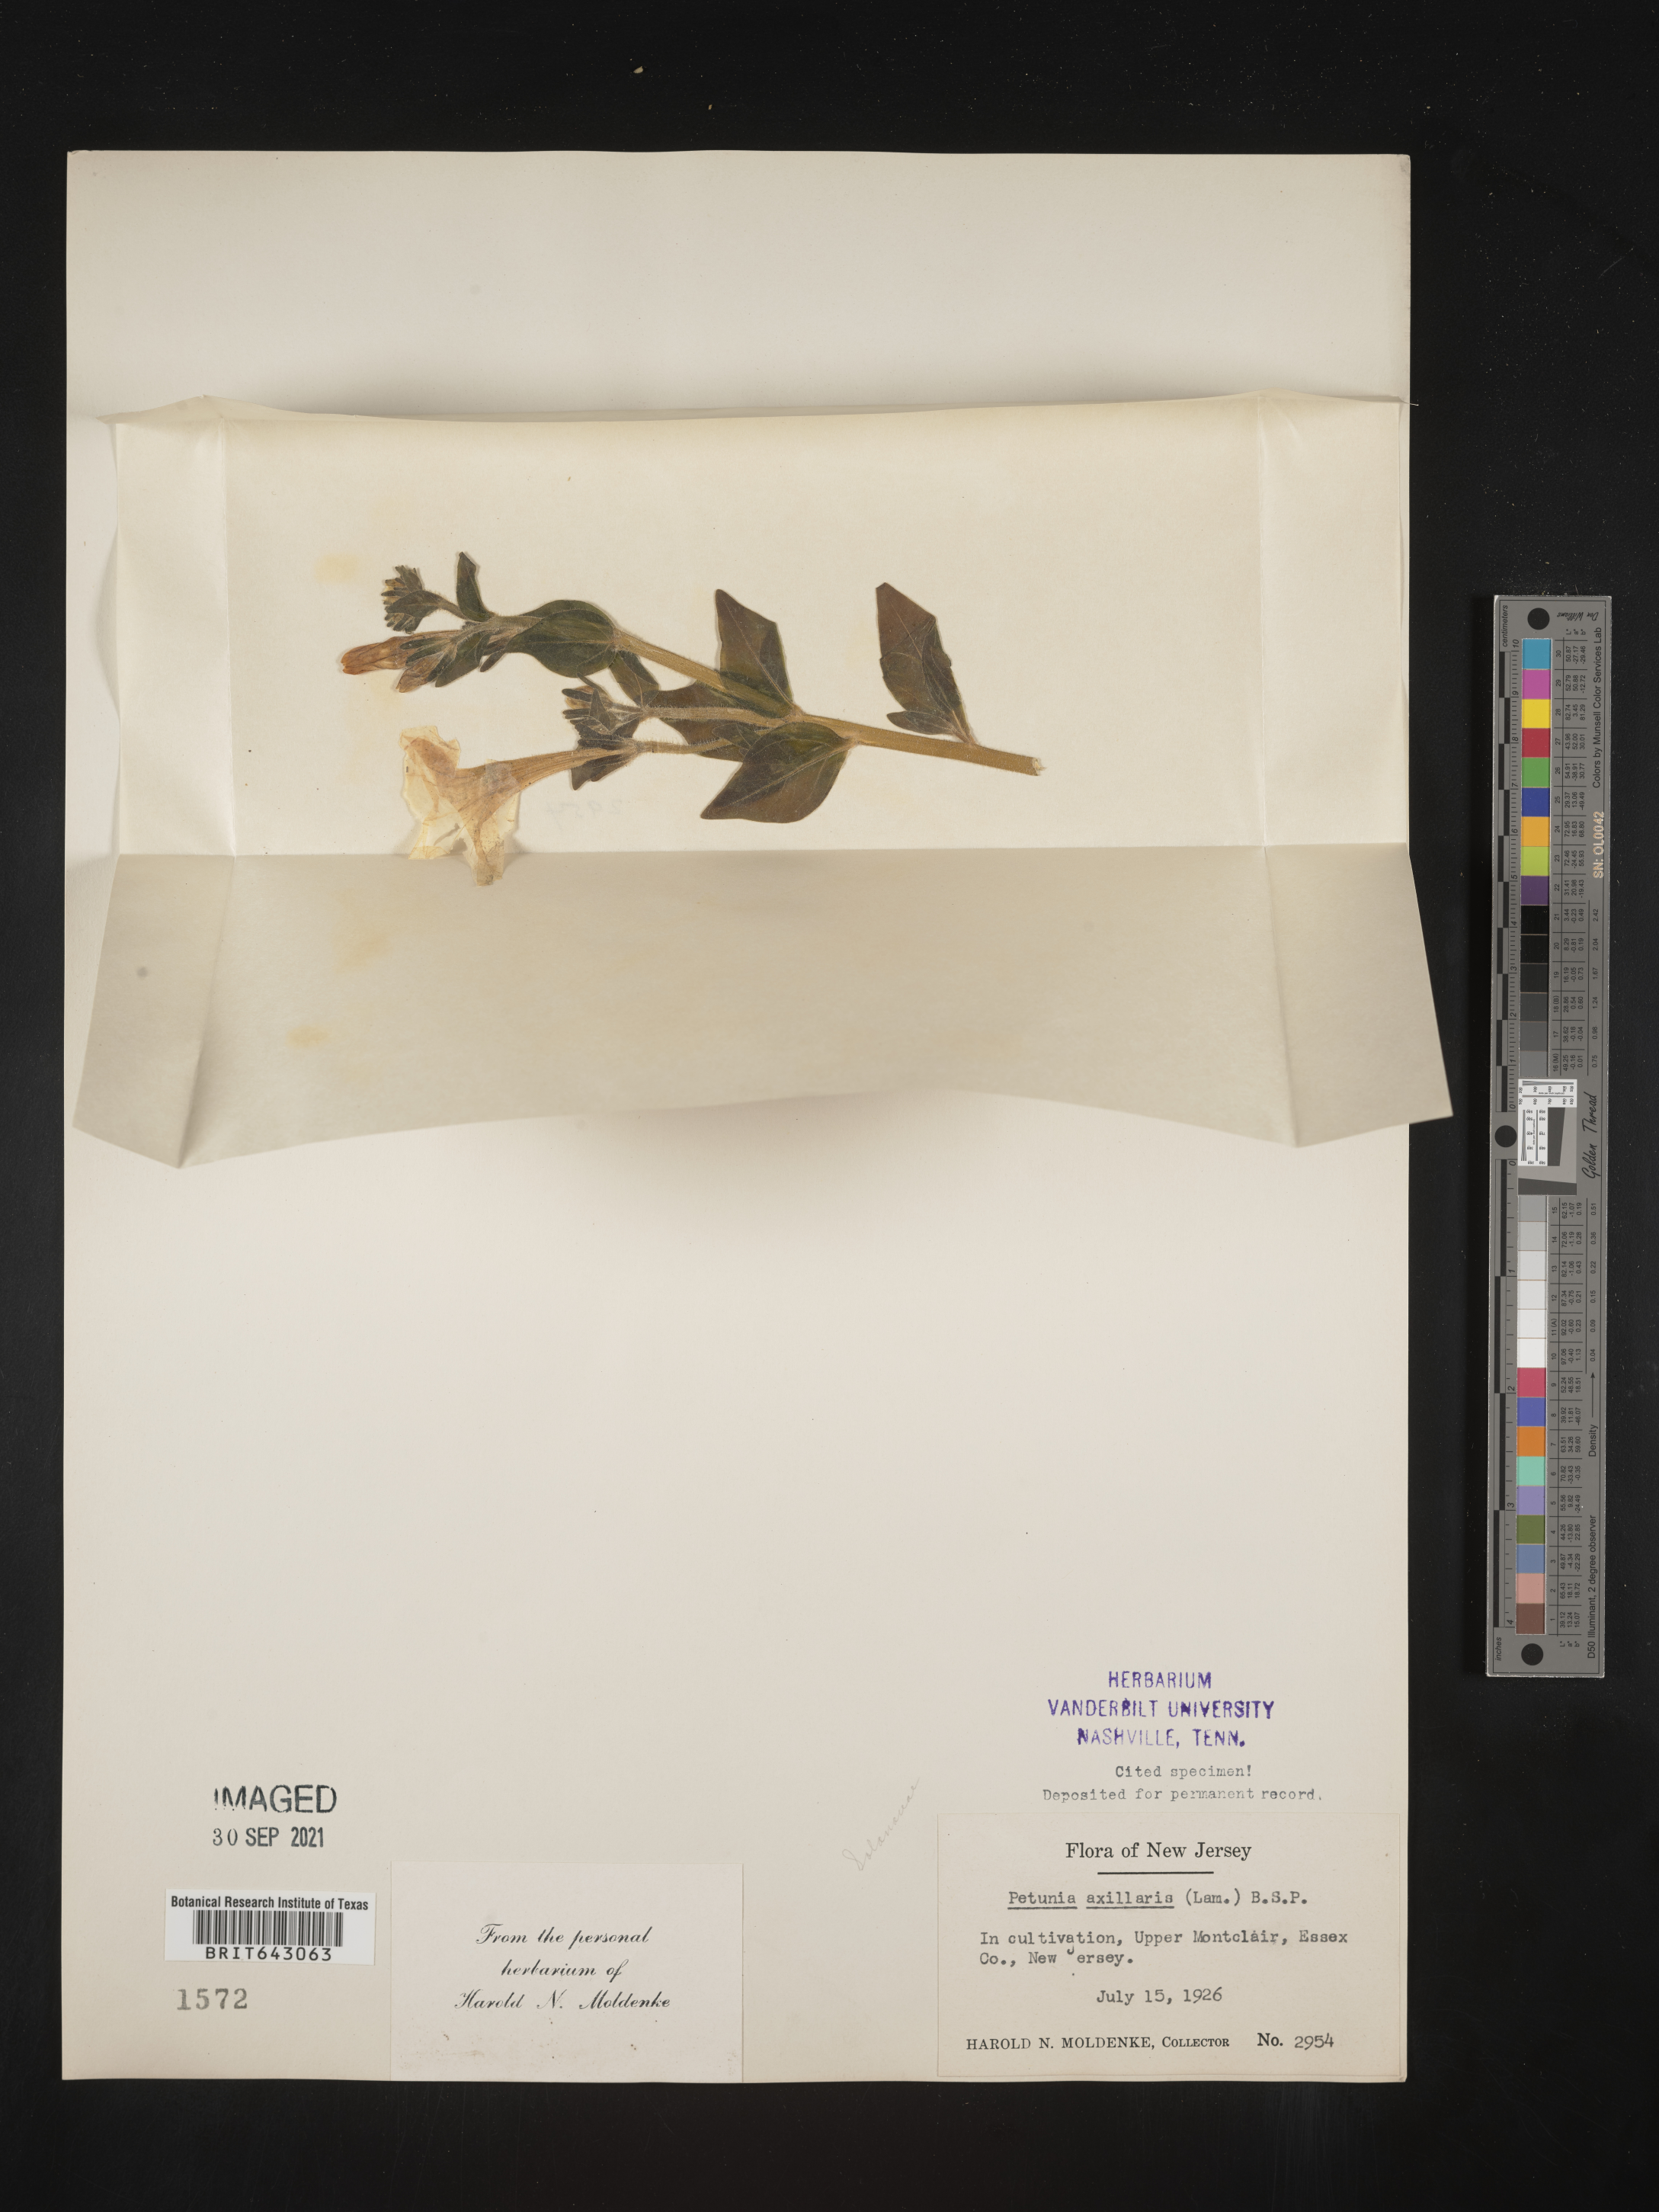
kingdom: Plantae
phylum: Tracheophyta
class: Magnoliopsida
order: Solanales
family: Solanaceae
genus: Petunia
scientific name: Petunia
